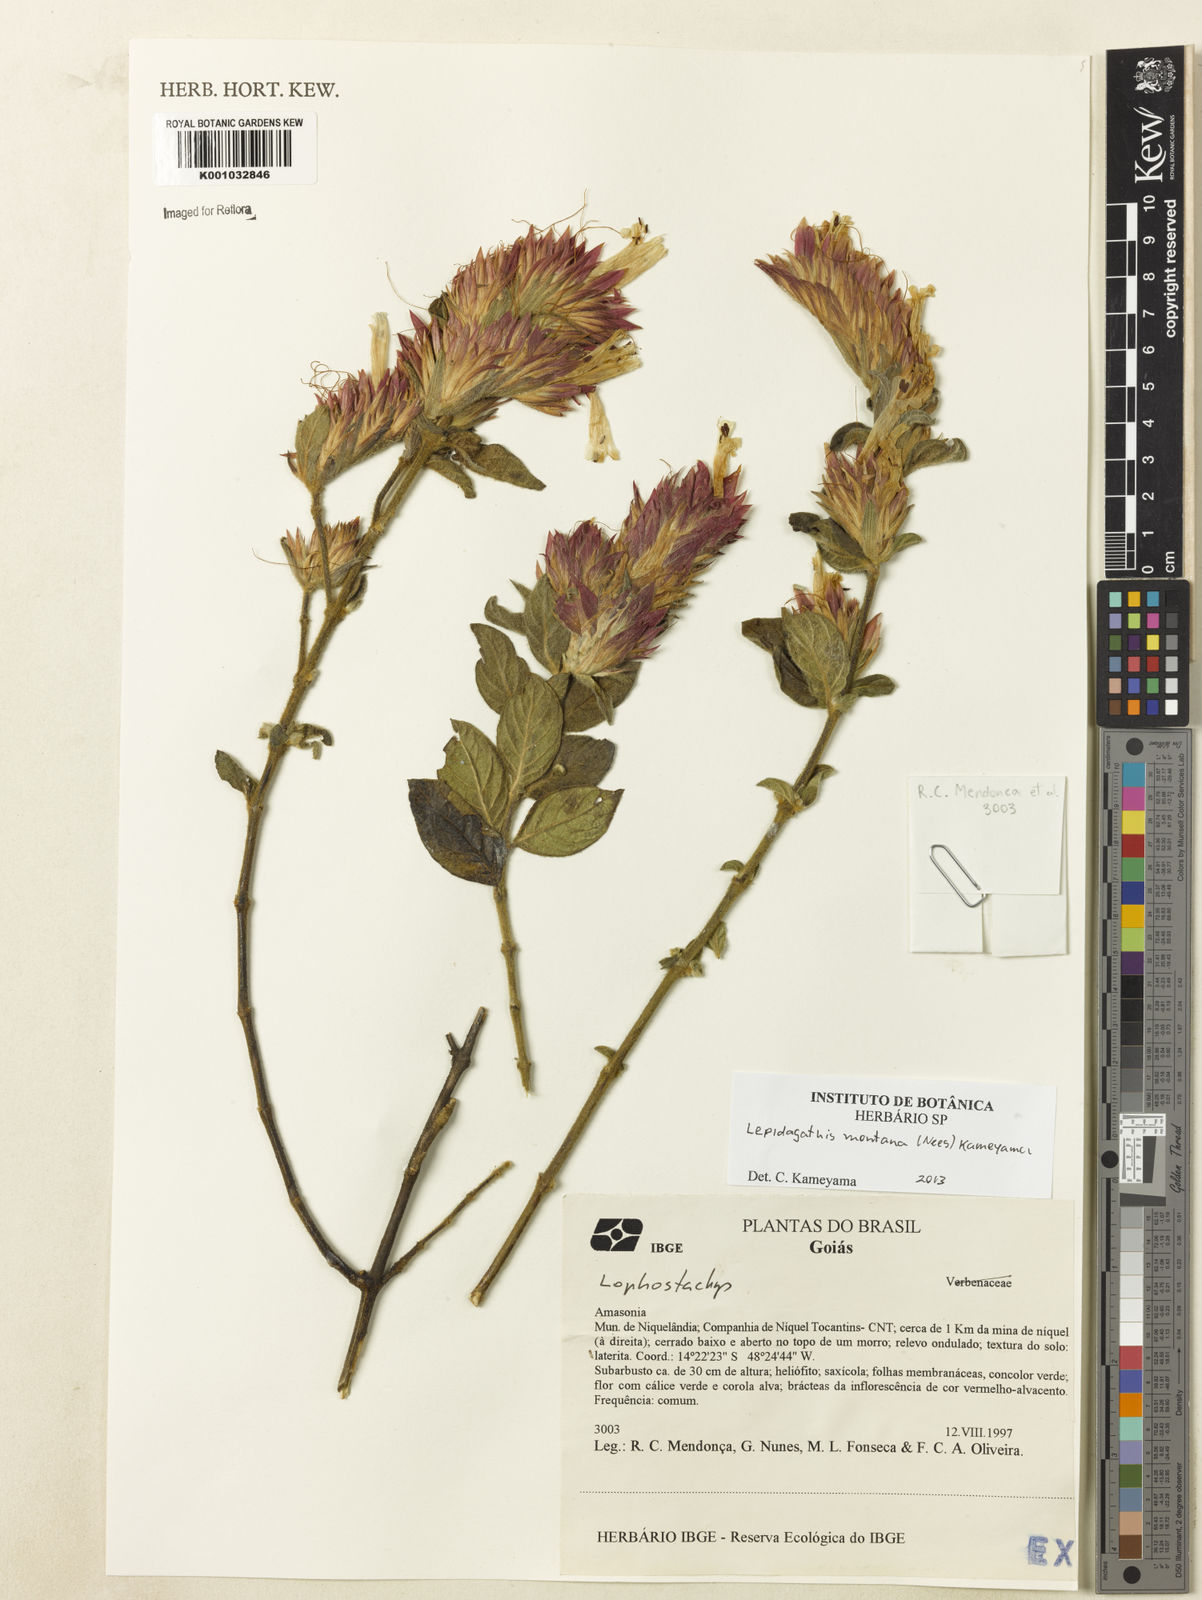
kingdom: Plantae
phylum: Tracheophyta
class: Magnoliopsida
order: Lamiales
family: Acanthaceae
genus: Lepidagathis
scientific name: Lepidagathis montana
